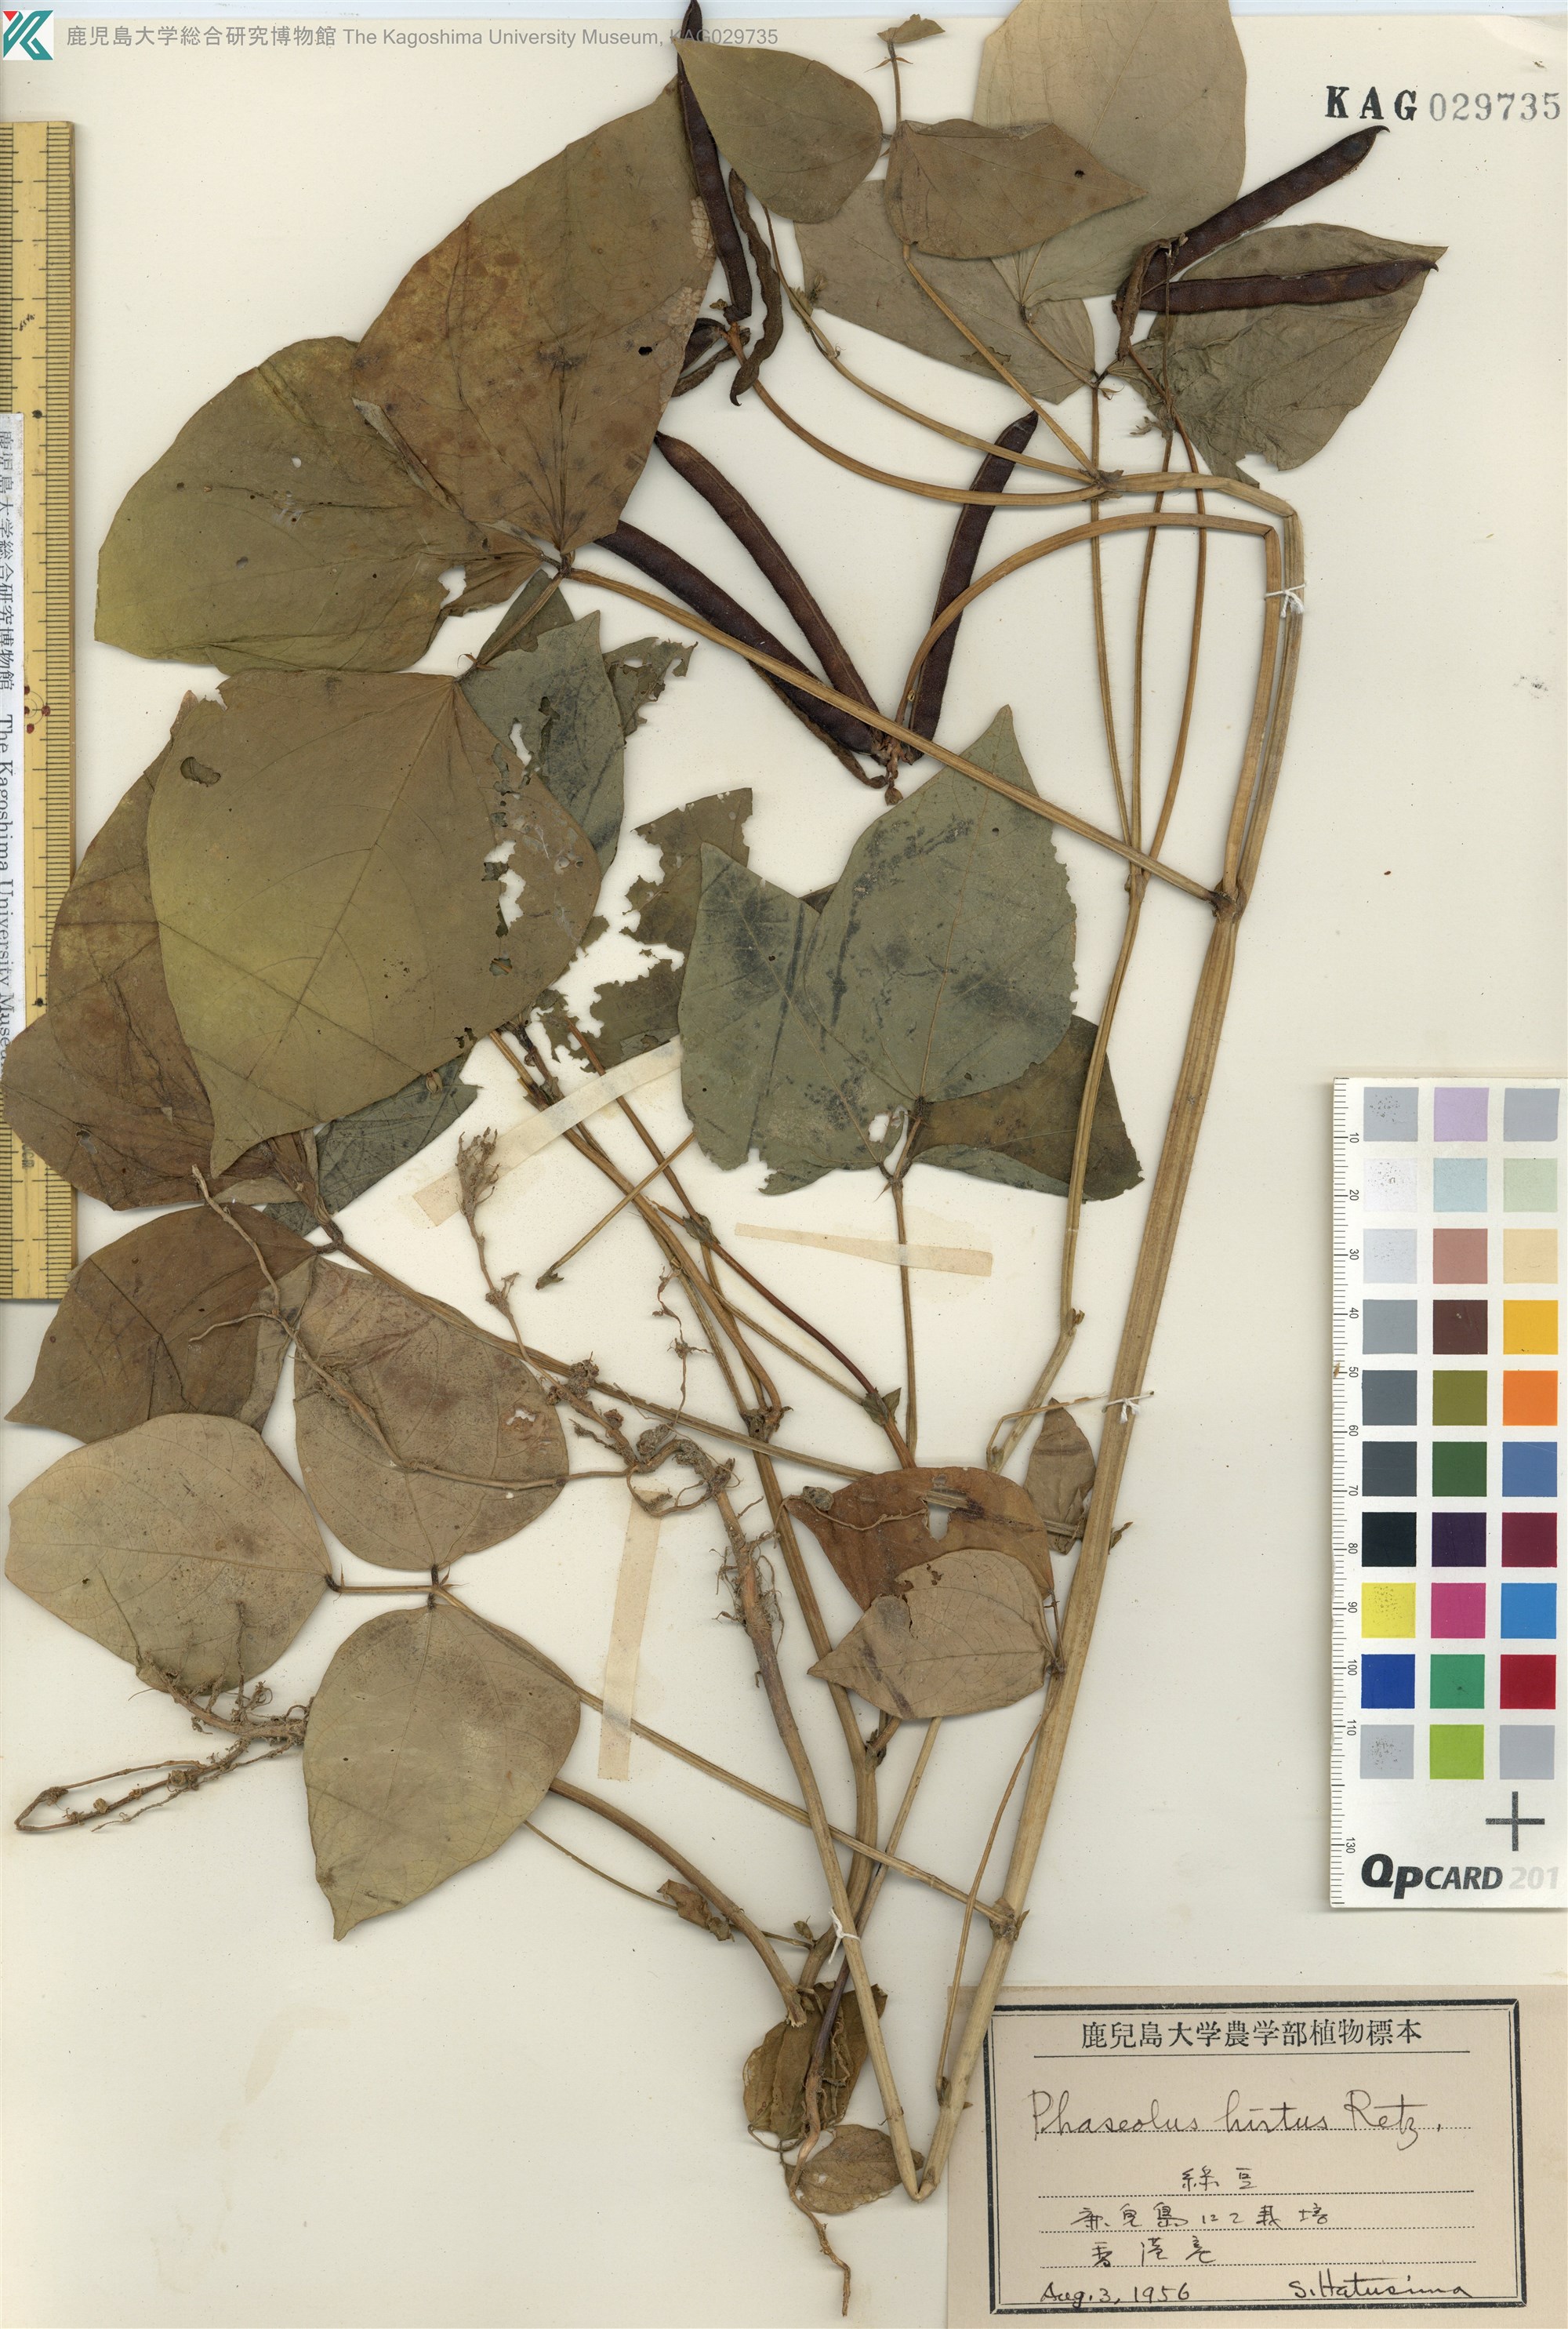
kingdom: Plantae
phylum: Tracheophyta
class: Magnoliopsida
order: Fabales
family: Fabaceae
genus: Vigna
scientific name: Vigna radiata
